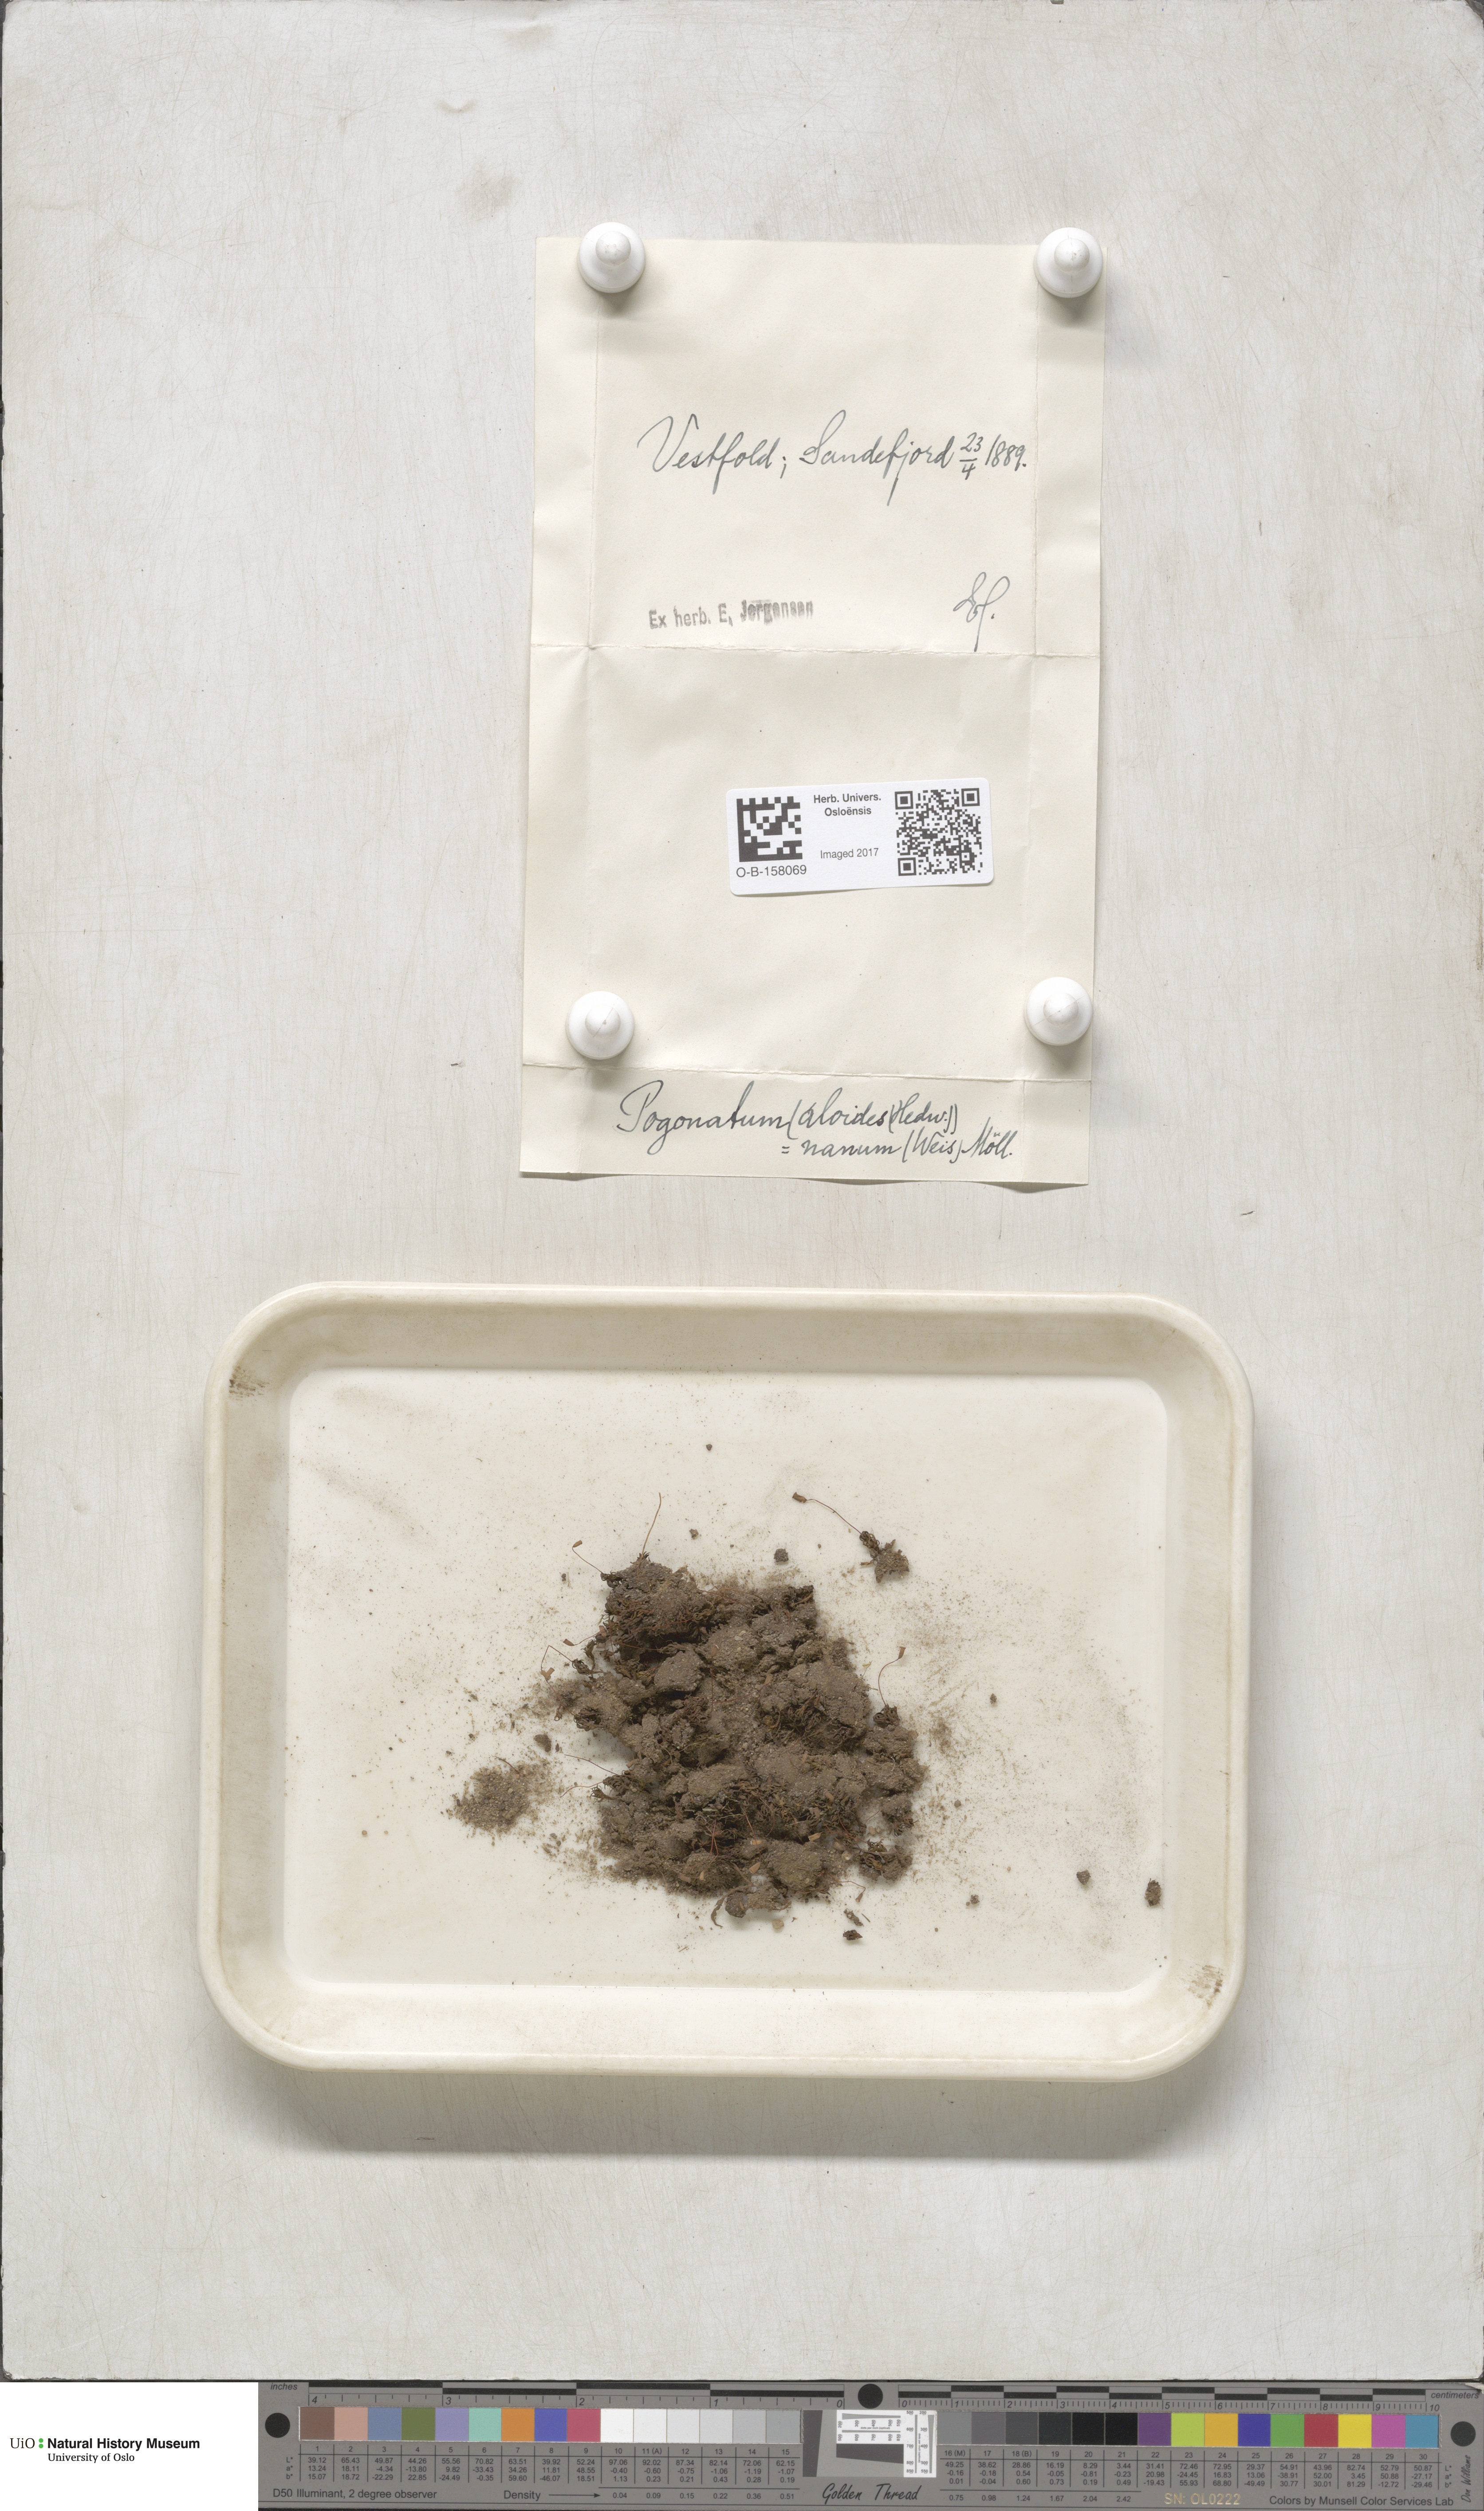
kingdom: Plantae
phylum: Bryophyta
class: Polytrichopsida
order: Polytrichales
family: Polytrichaceae
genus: Pogonatum
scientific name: Pogonatum aloides
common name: Aloe haircap
